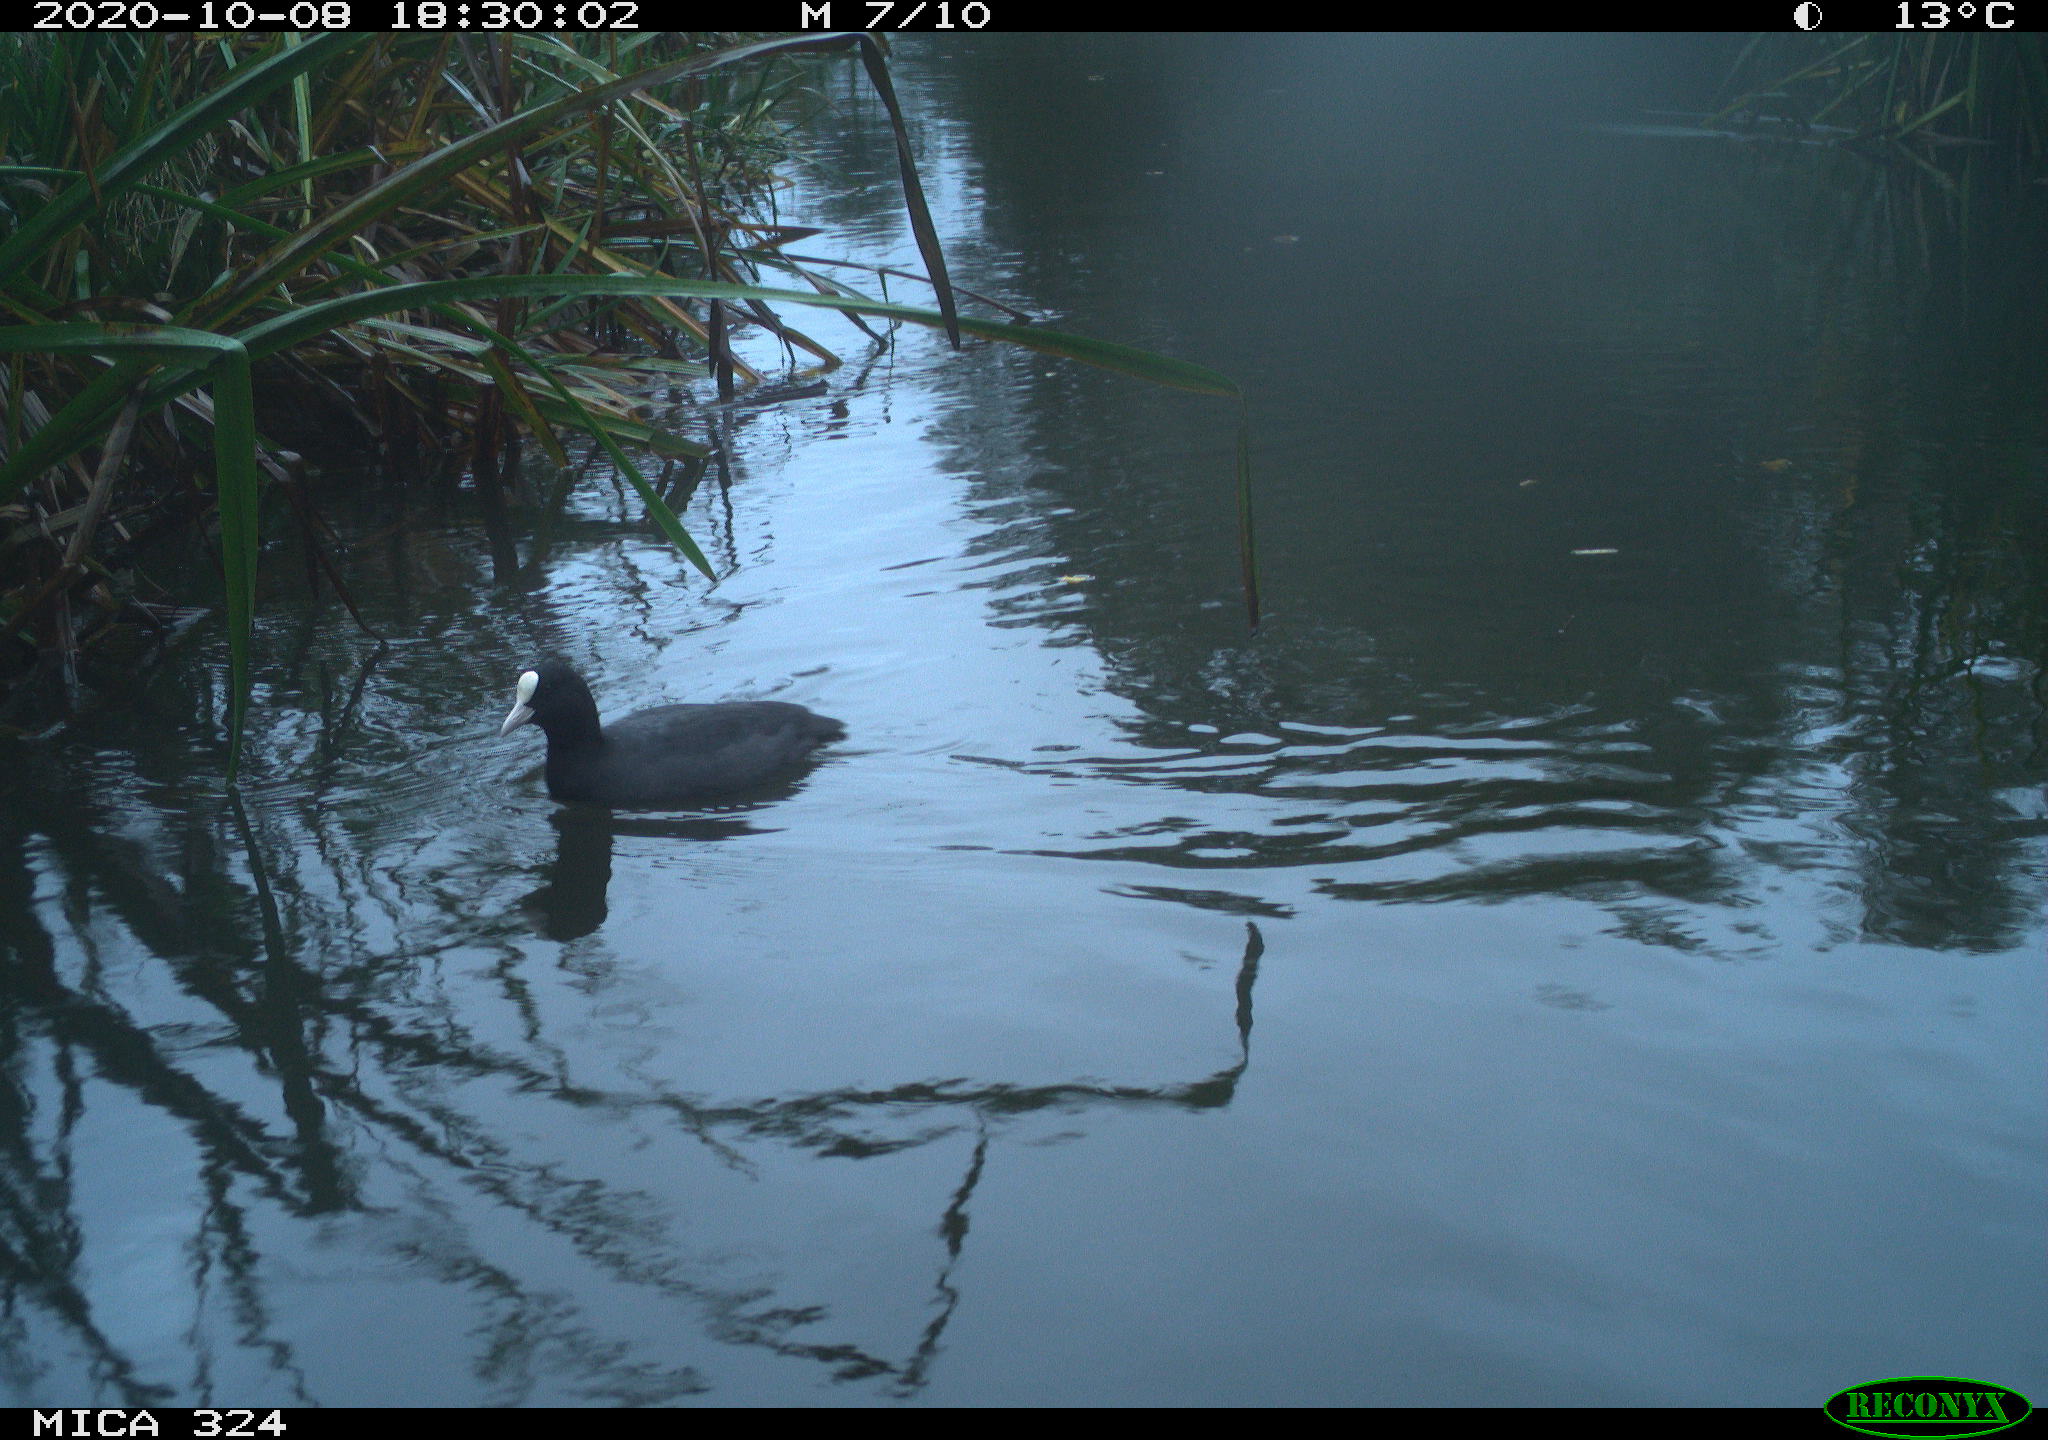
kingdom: Animalia
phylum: Chordata
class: Aves
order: Gruiformes
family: Rallidae
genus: Fulica
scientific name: Fulica atra
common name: Eurasian coot
